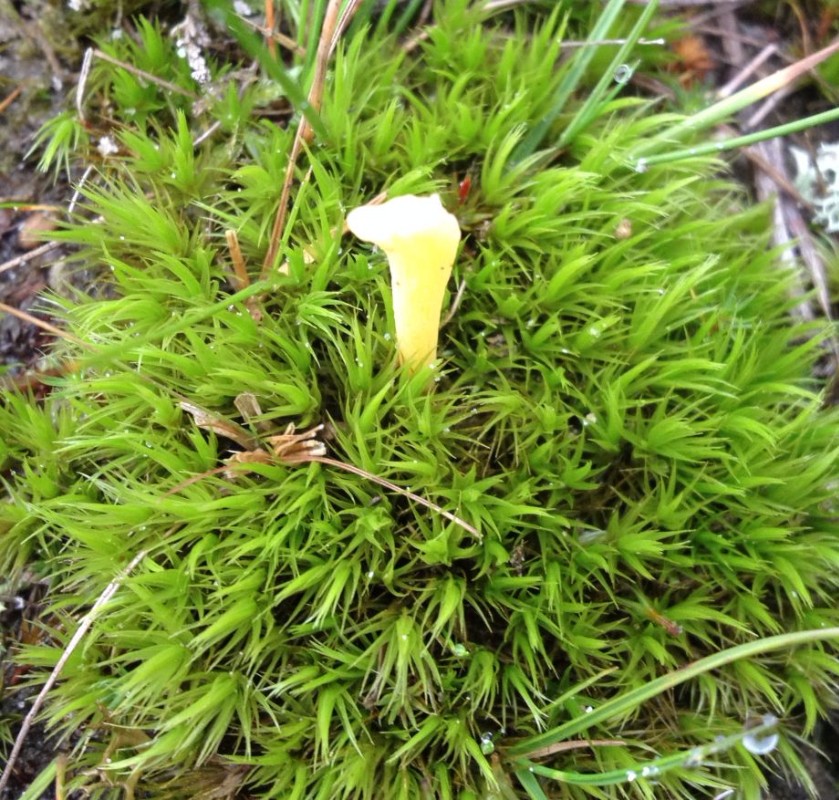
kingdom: Fungi
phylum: Basidiomycota
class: Agaricomycetes
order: Agaricales
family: Clavariaceae
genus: Clavaria
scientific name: Clavaria argillacea
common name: lerfarvet køllesvamp
